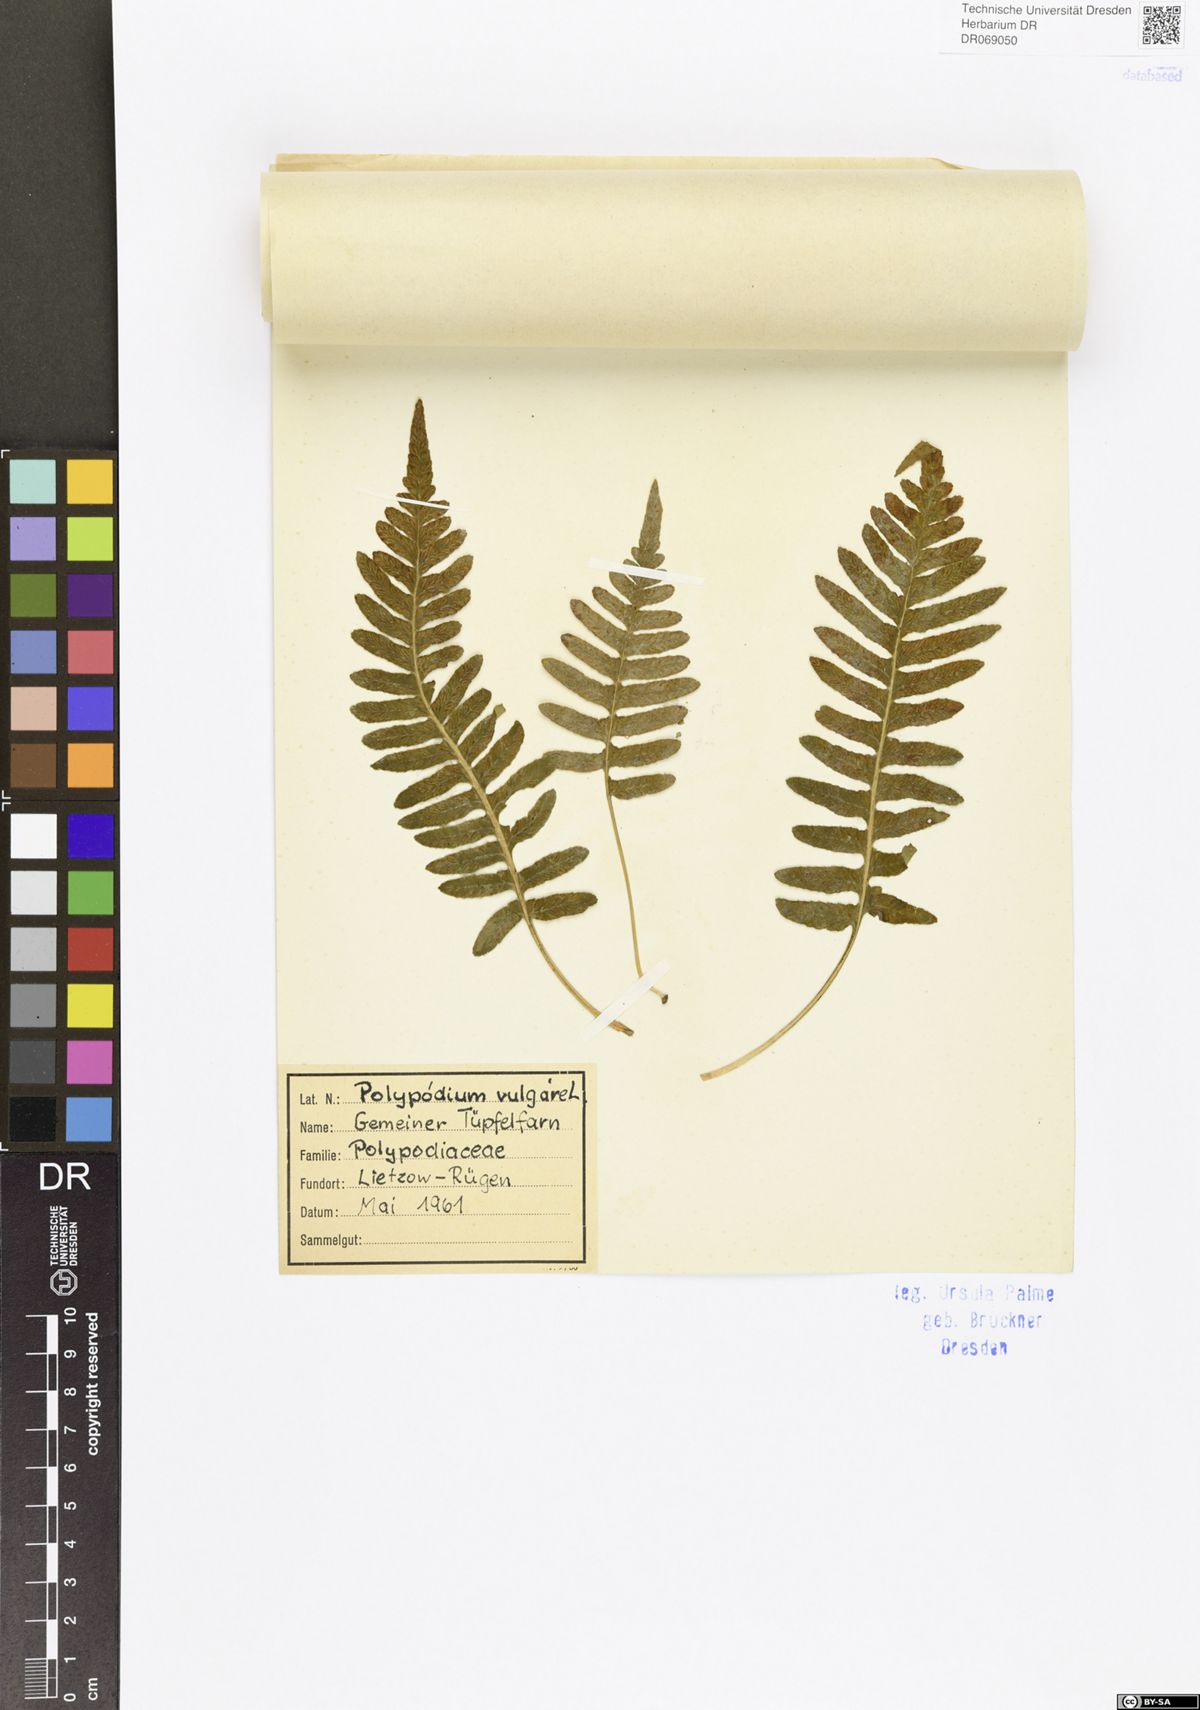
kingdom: Plantae
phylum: Tracheophyta
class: Polypodiopsida
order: Polypodiales
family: Polypodiaceae
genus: Polypodium
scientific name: Polypodium vulgare
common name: Common polypody
